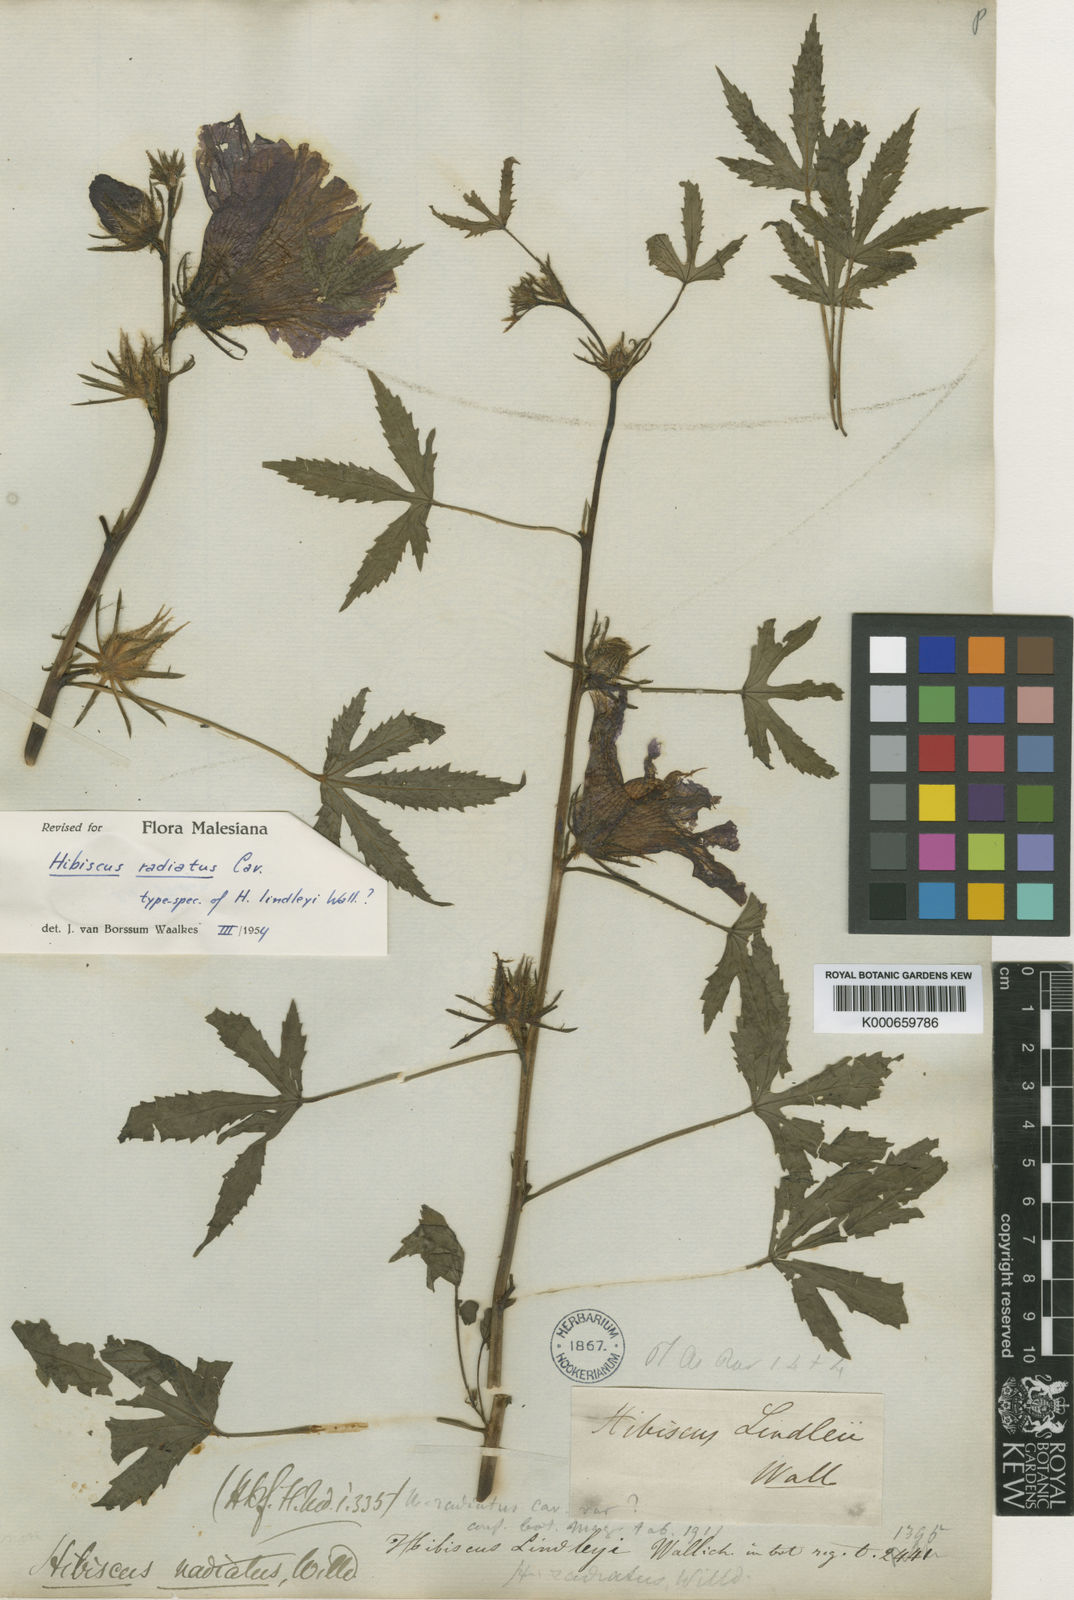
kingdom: Plantae
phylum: Tracheophyta
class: Magnoliopsida
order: Malvales
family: Malvaceae
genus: Hibiscus
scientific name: Hibiscus radiatus
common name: Monarch rosemallow
